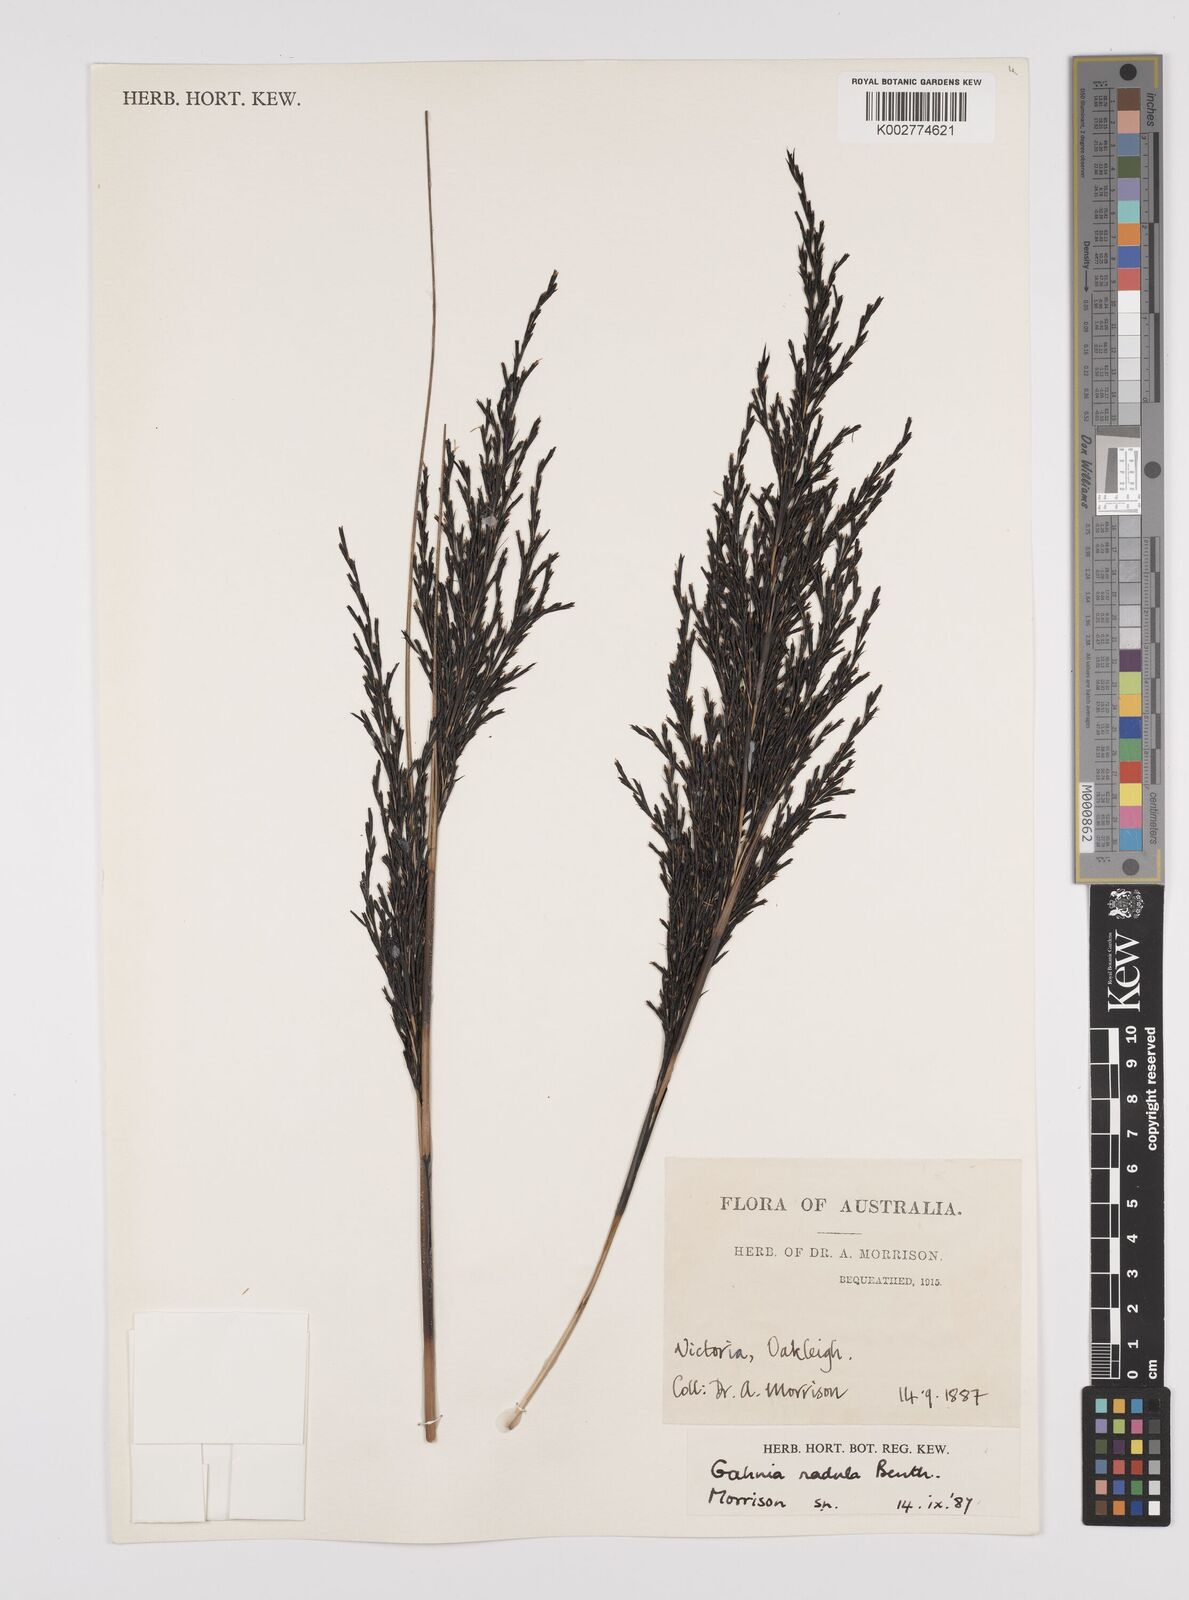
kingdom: Plantae
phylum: Tracheophyta
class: Liliopsida
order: Poales
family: Cyperaceae
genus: Gahnia
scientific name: Gahnia radula
